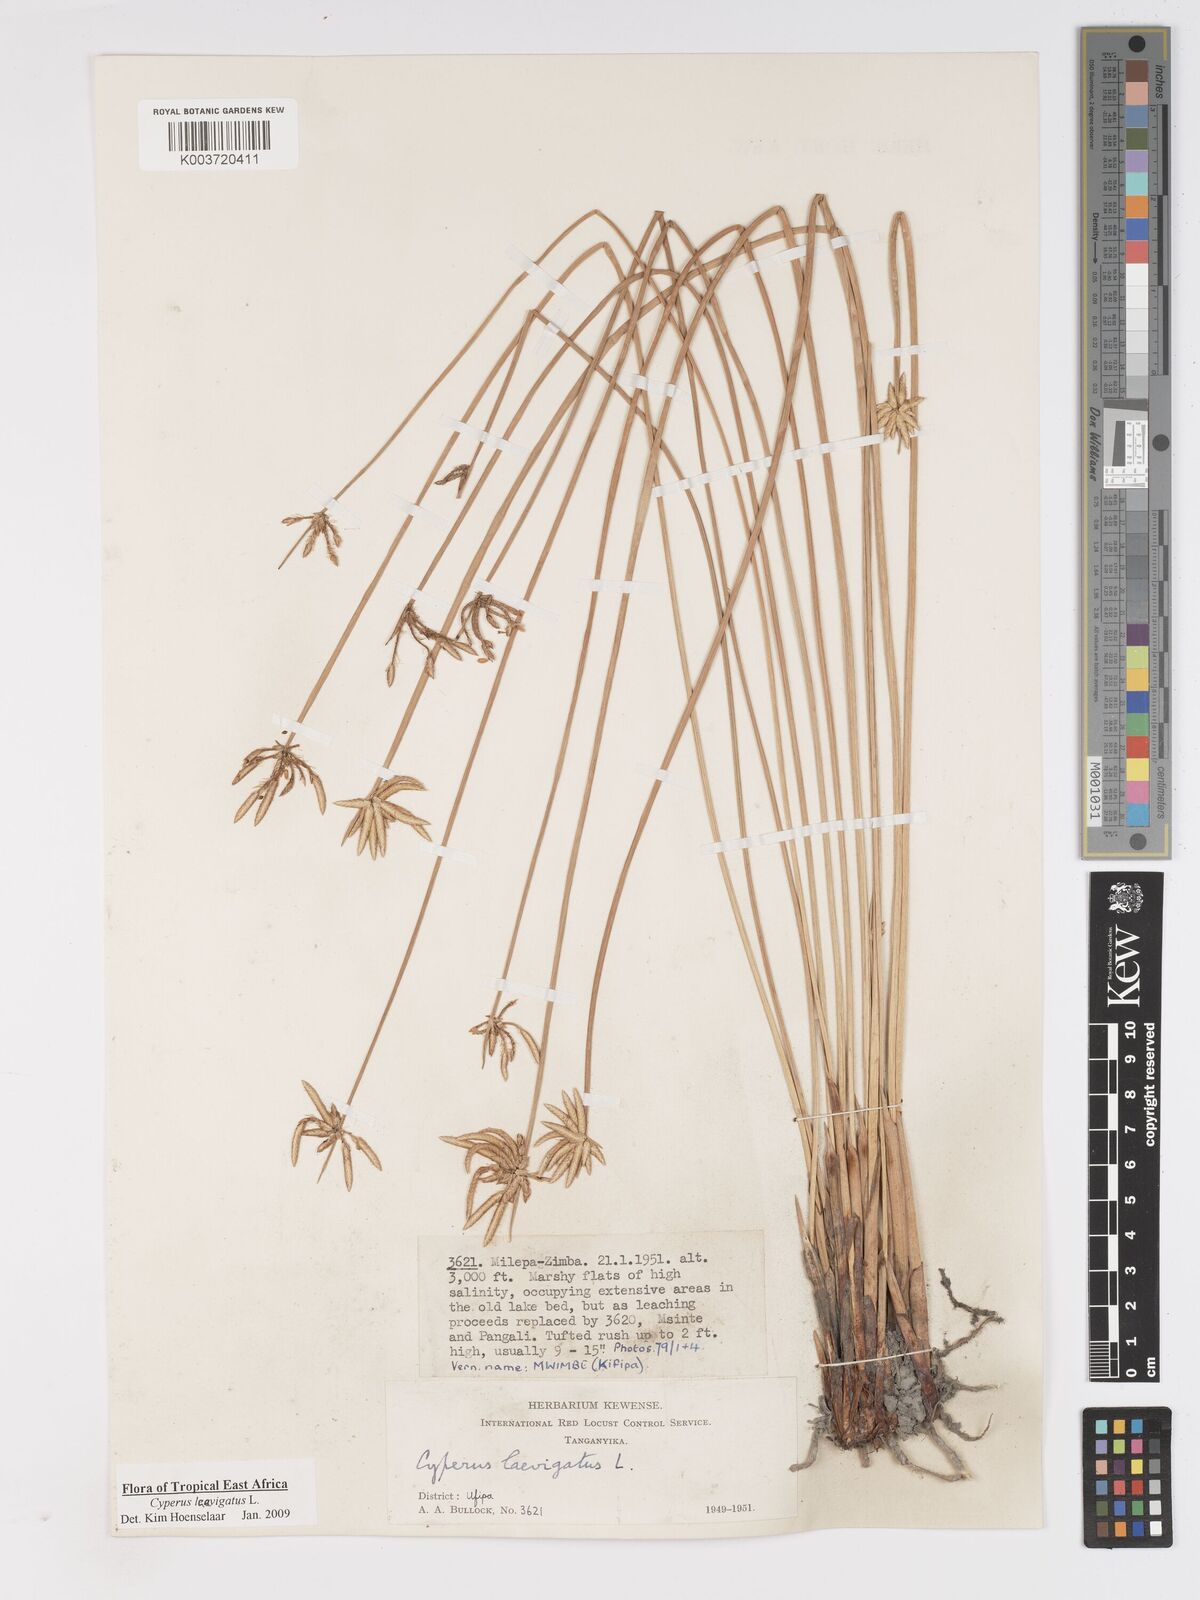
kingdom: Plantae
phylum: Tracheophyta
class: Liliopsida
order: Poales
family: Cyperaceae
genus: Cyperus
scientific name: Cyperus laevigatus
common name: Smooth flat sedge
